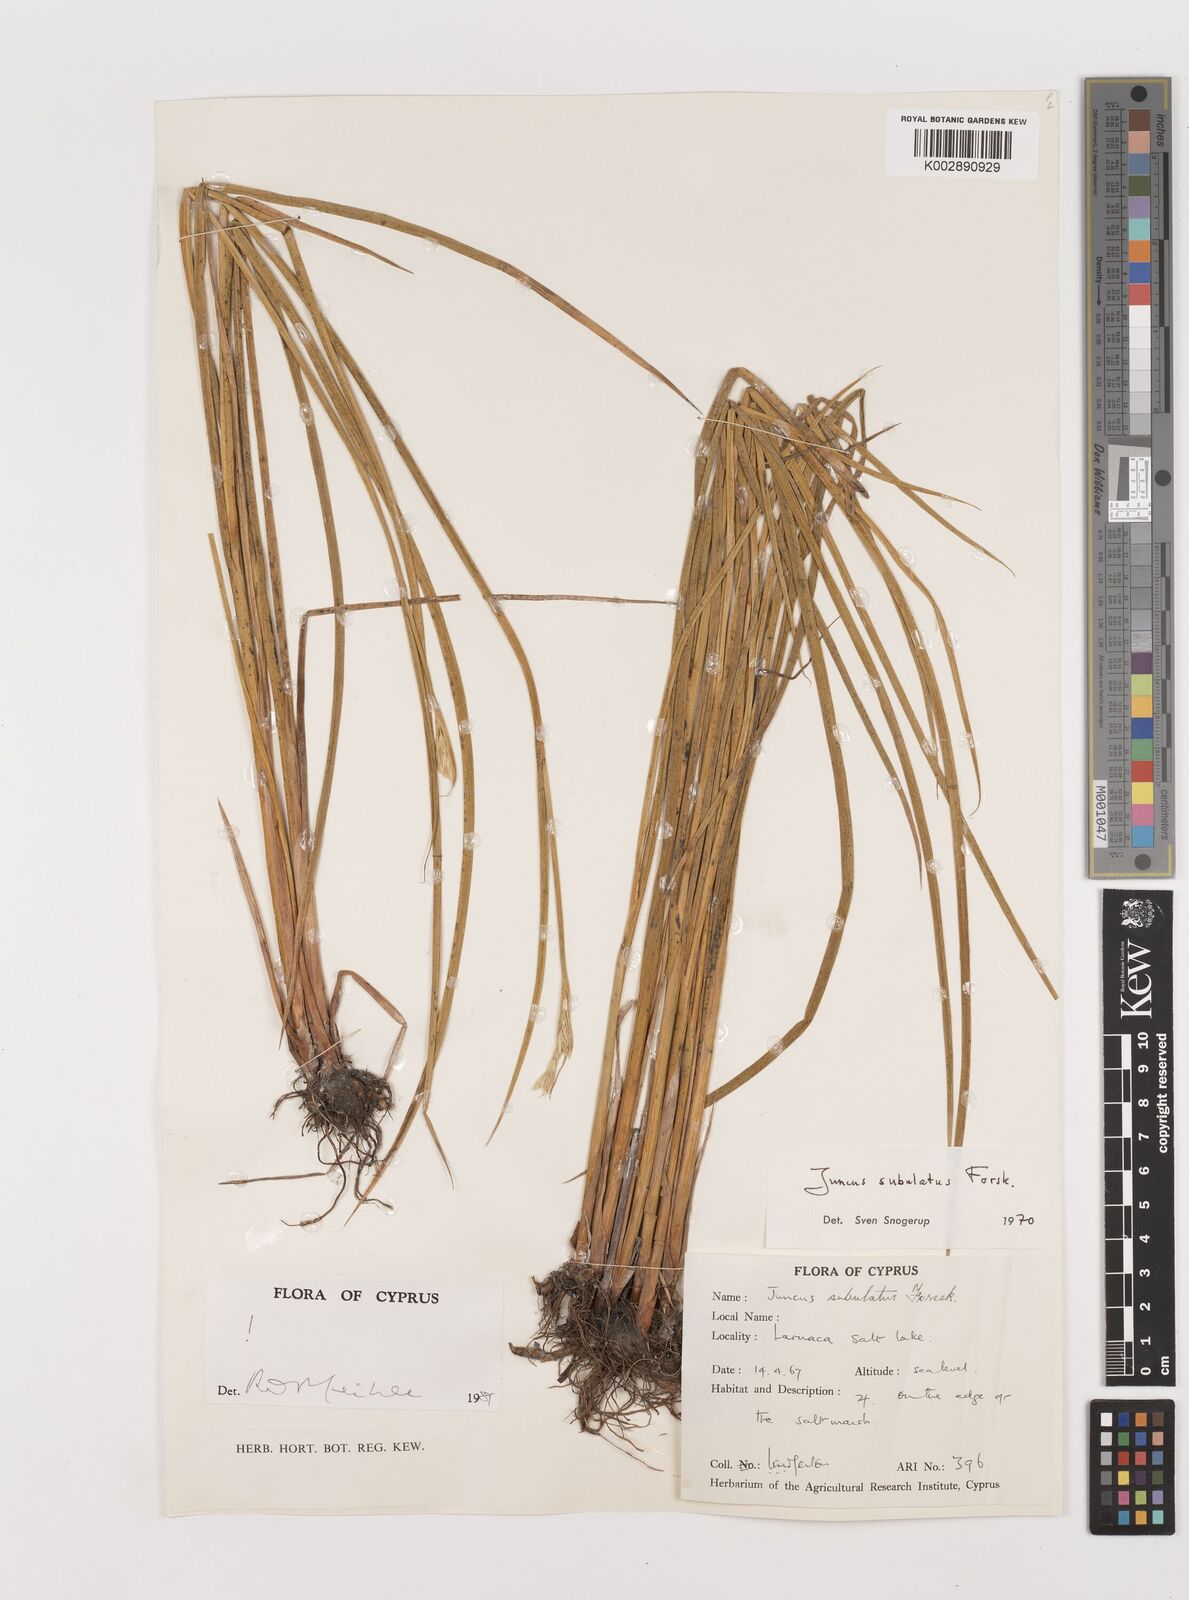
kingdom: Plantae
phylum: Tracheophyta
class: Liliopsida
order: Poales
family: Juncaceae
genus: Juncus
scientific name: Juncus subulatus
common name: Somerset rush
